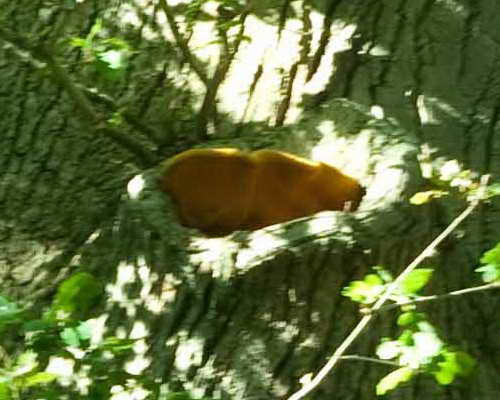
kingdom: Fungi
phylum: Basidiomycota
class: Agaricomycetes
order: Polyporales
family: Phanerochaetaceae
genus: Hapalopilus
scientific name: Hapalopilus croceus
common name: safrangul pragtporesvamp
